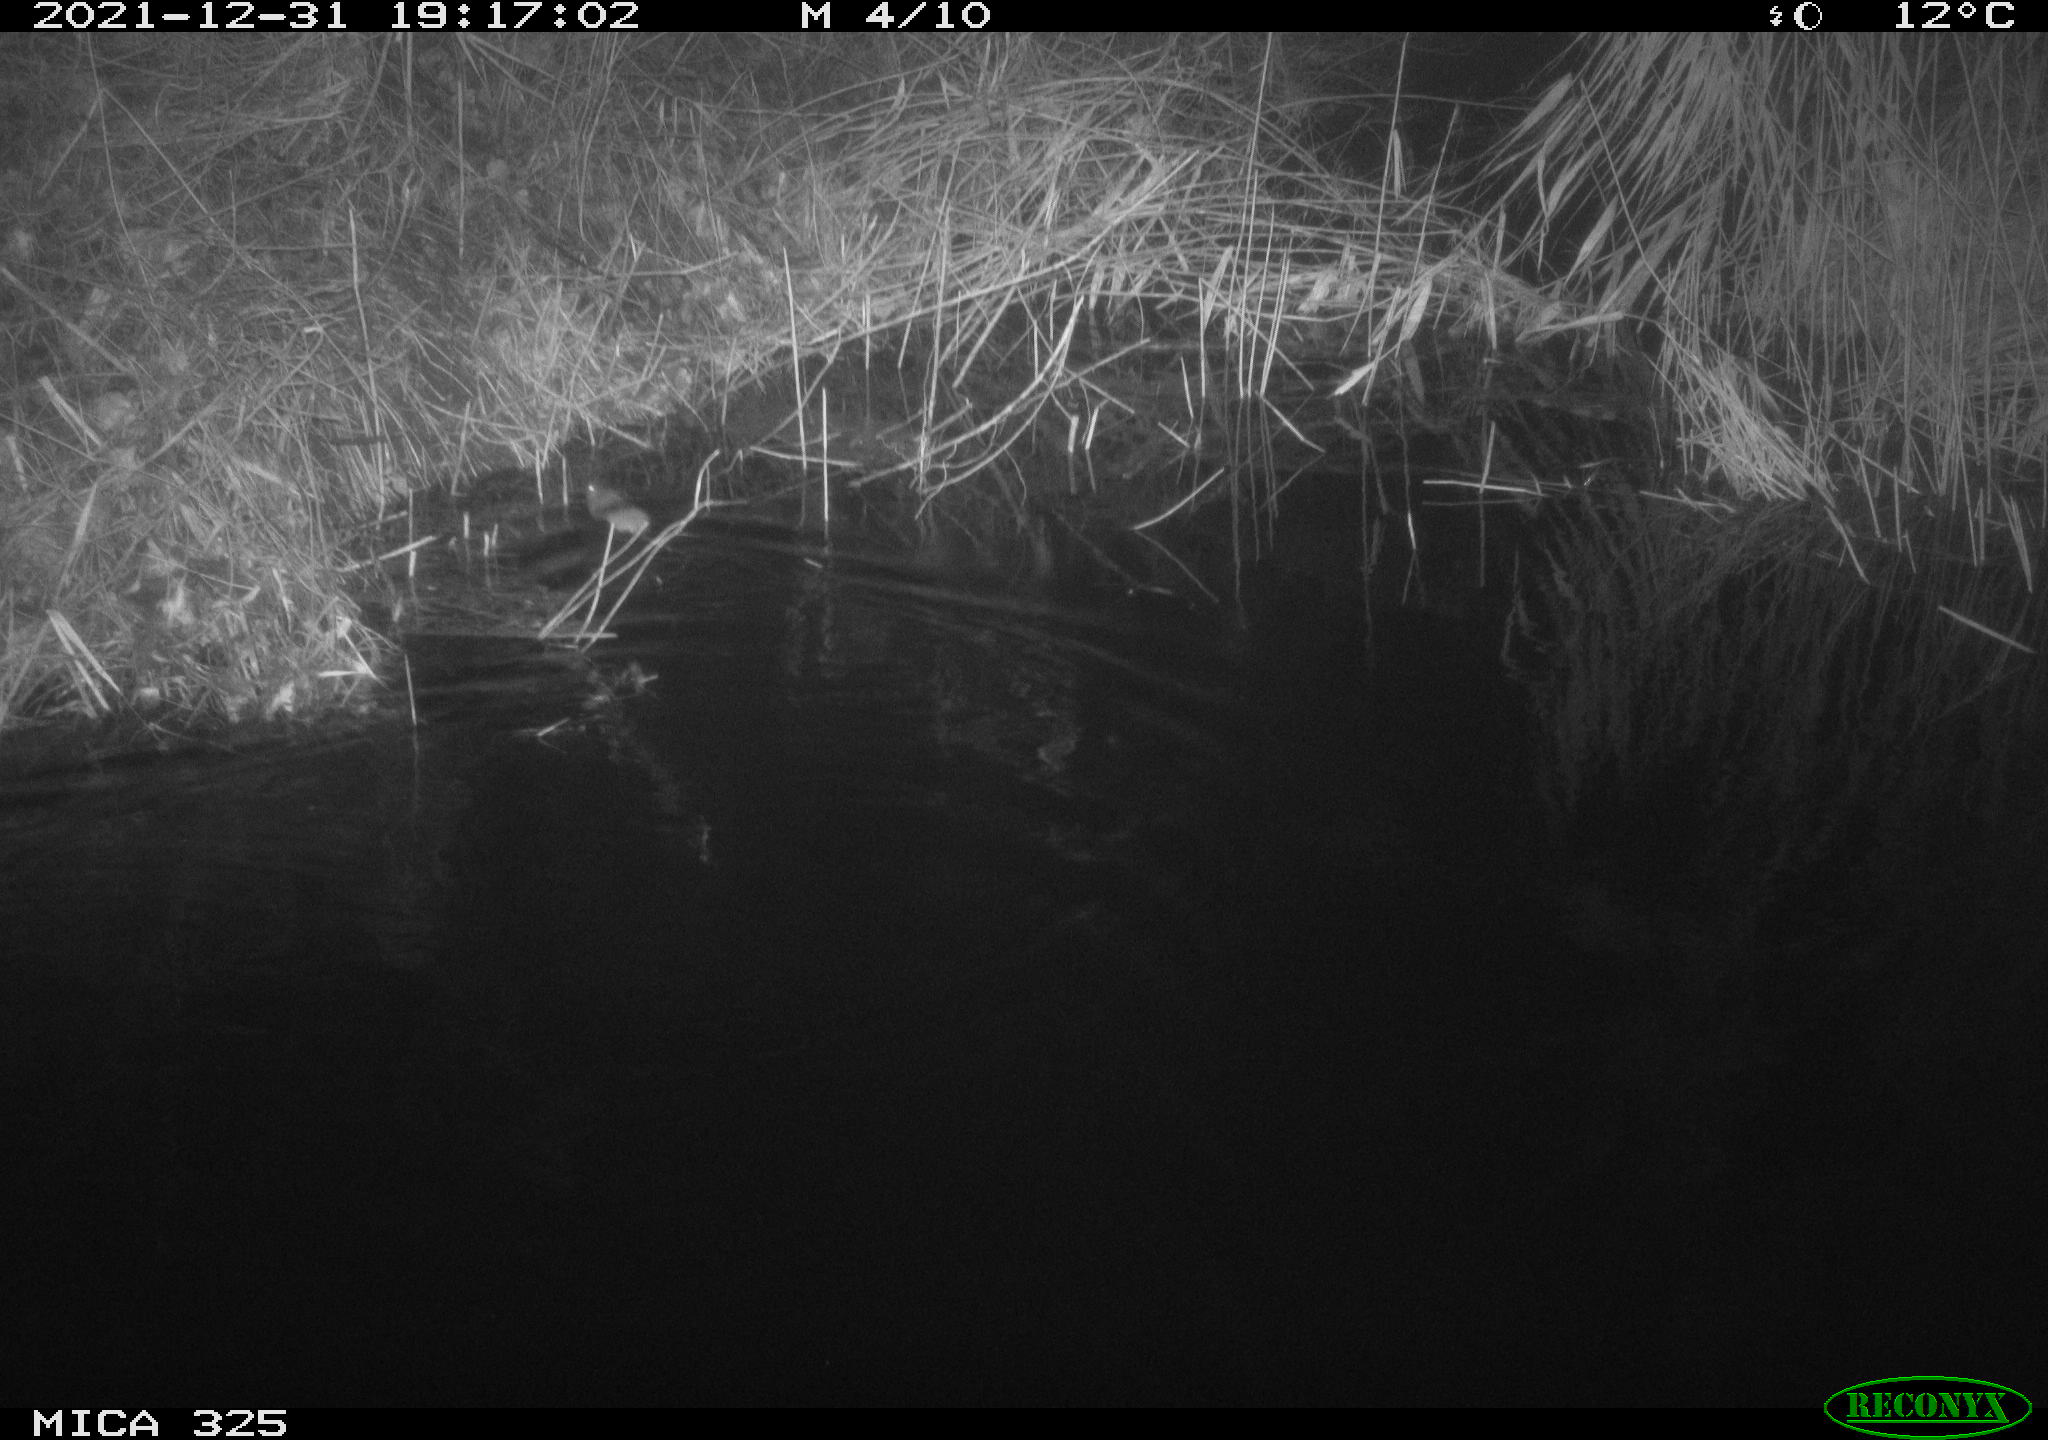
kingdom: Animalia
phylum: Chordata
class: Mammalia
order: Rodentia
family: Muridae
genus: Rattus
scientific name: Rattus norvegicus
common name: Brown rat
